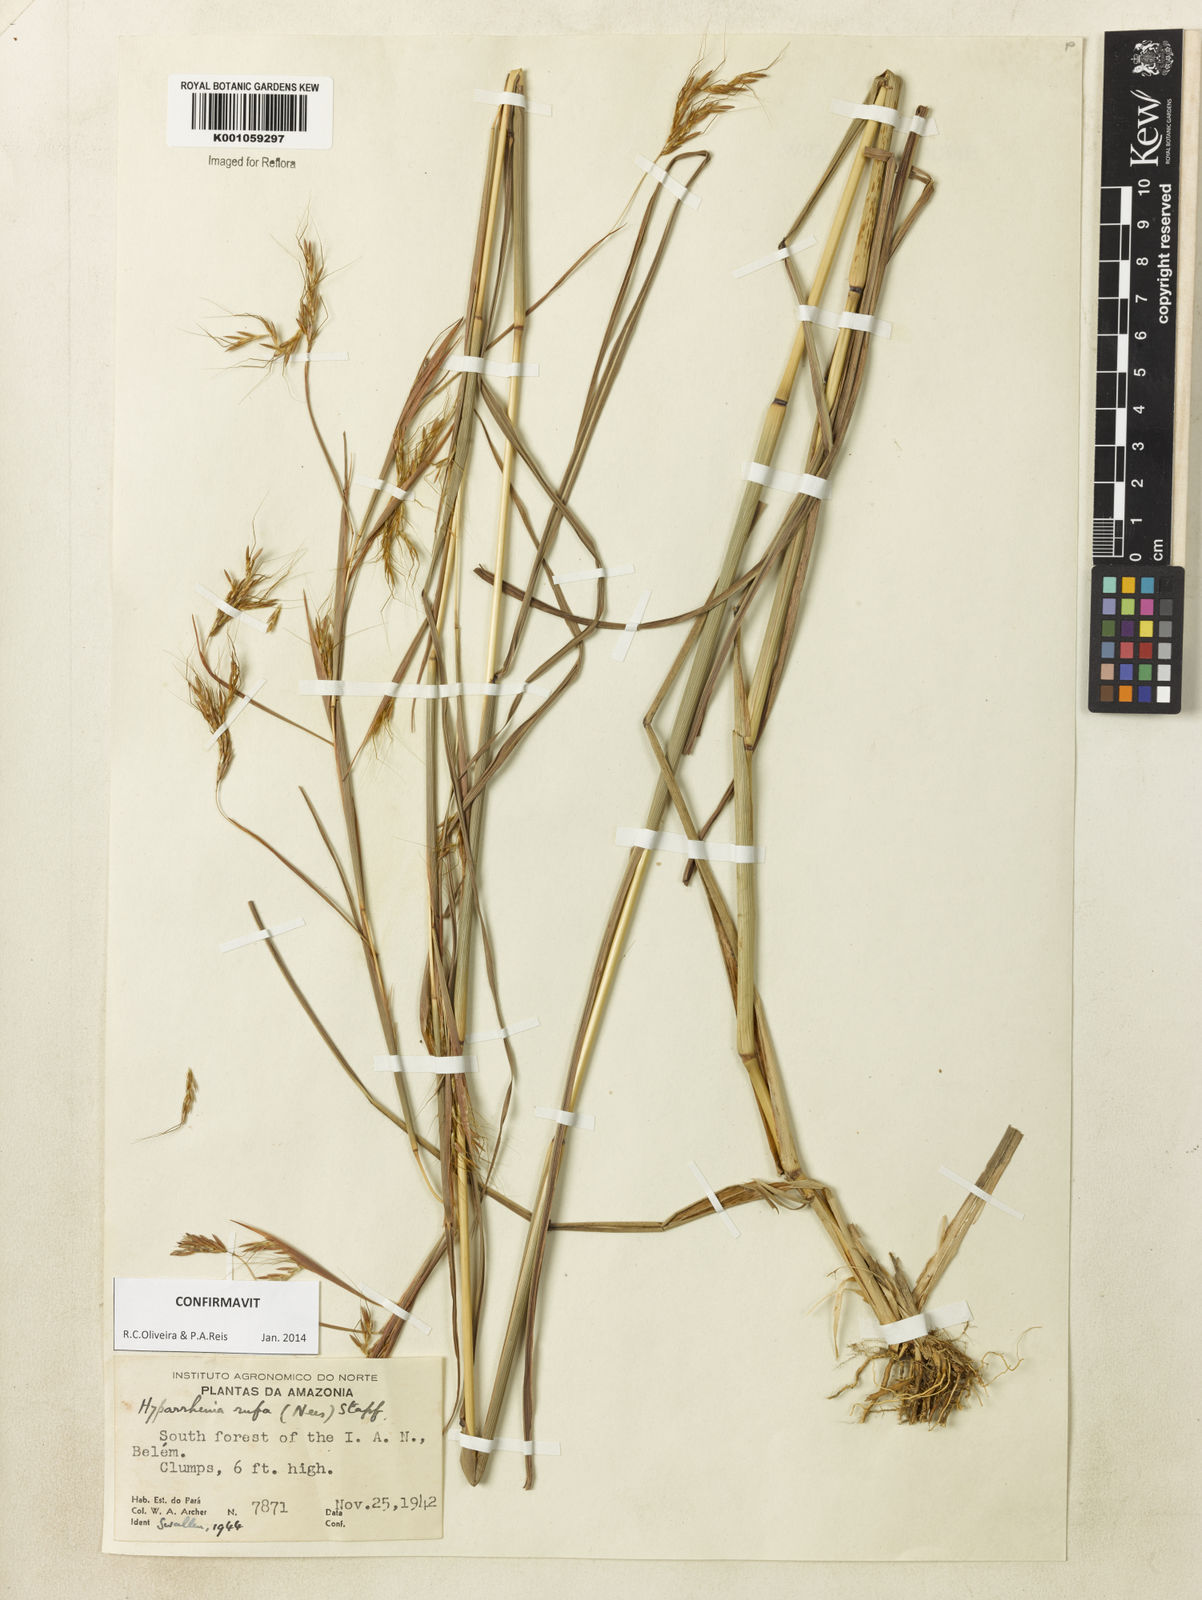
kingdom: Plantae
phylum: Tracheophyta
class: Liliopsida
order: Poales
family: Poaceae
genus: Hyparrhenia
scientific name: Hyparrhenia rufa
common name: Jaraguagrass
